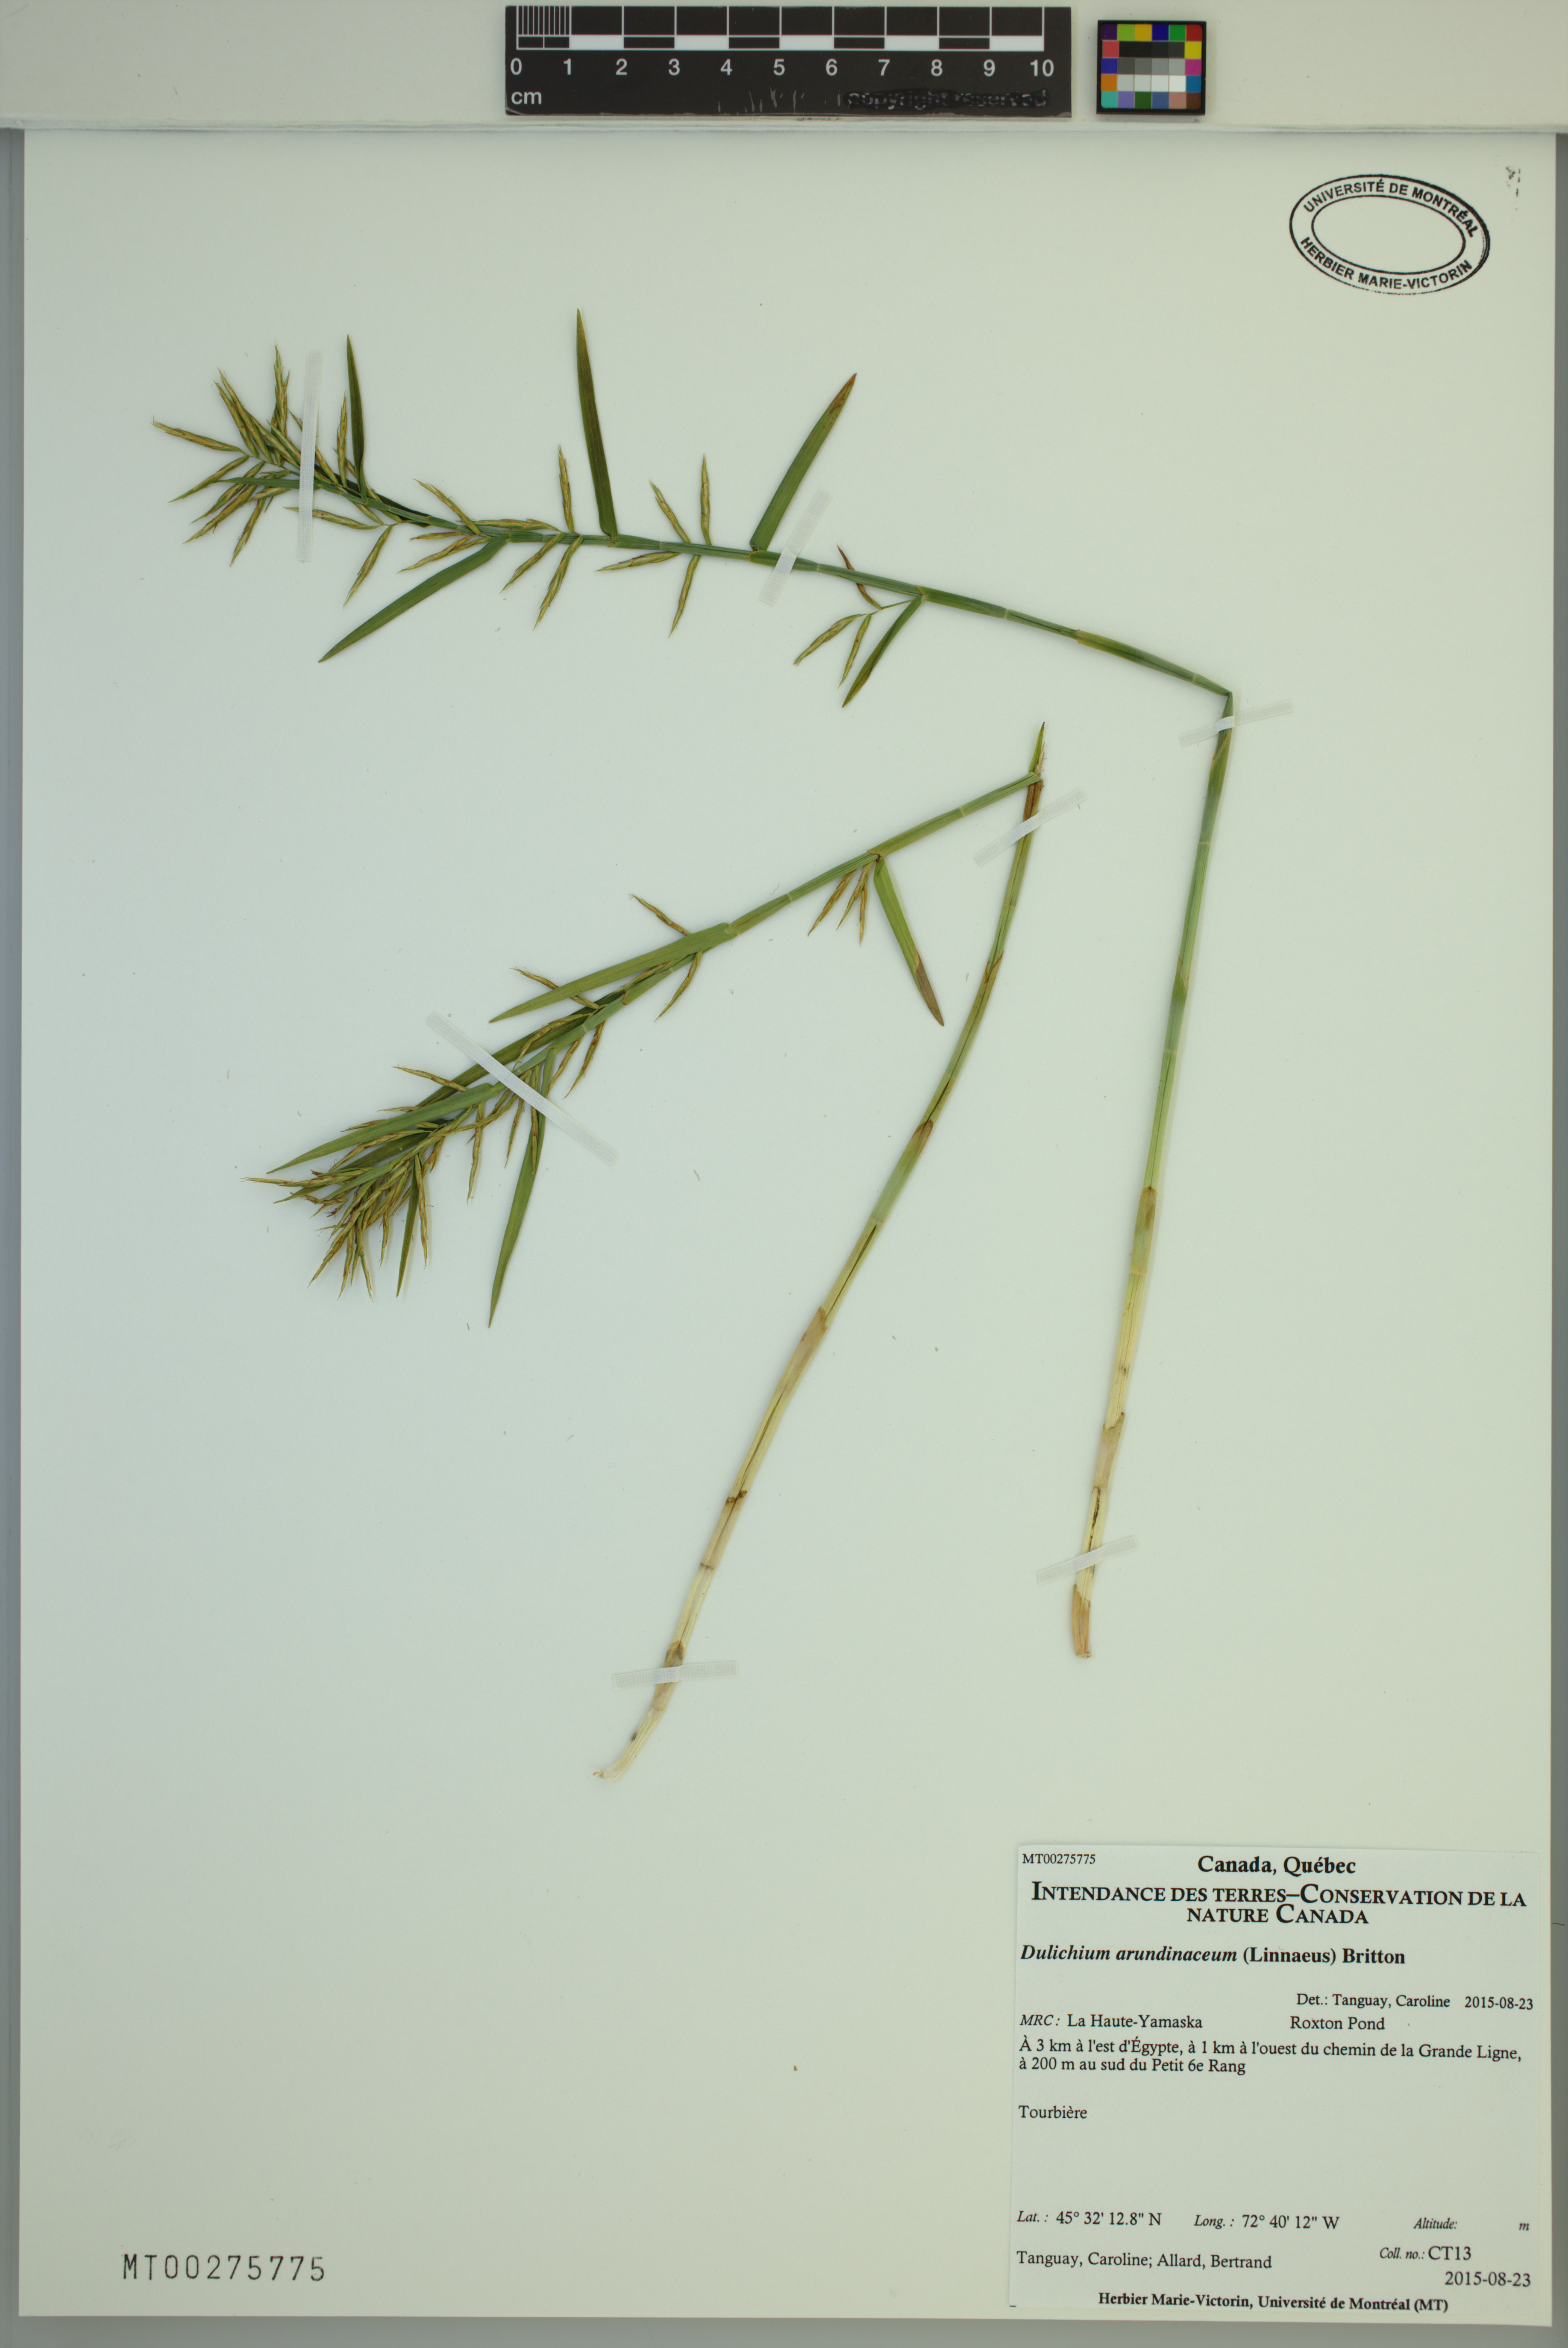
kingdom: Plantae
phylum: Tracheophyta
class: Liliopsida
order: Poales
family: Cyperaceae
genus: Dulichium
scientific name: Dulichium arundinaceum
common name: Three-way sedge
